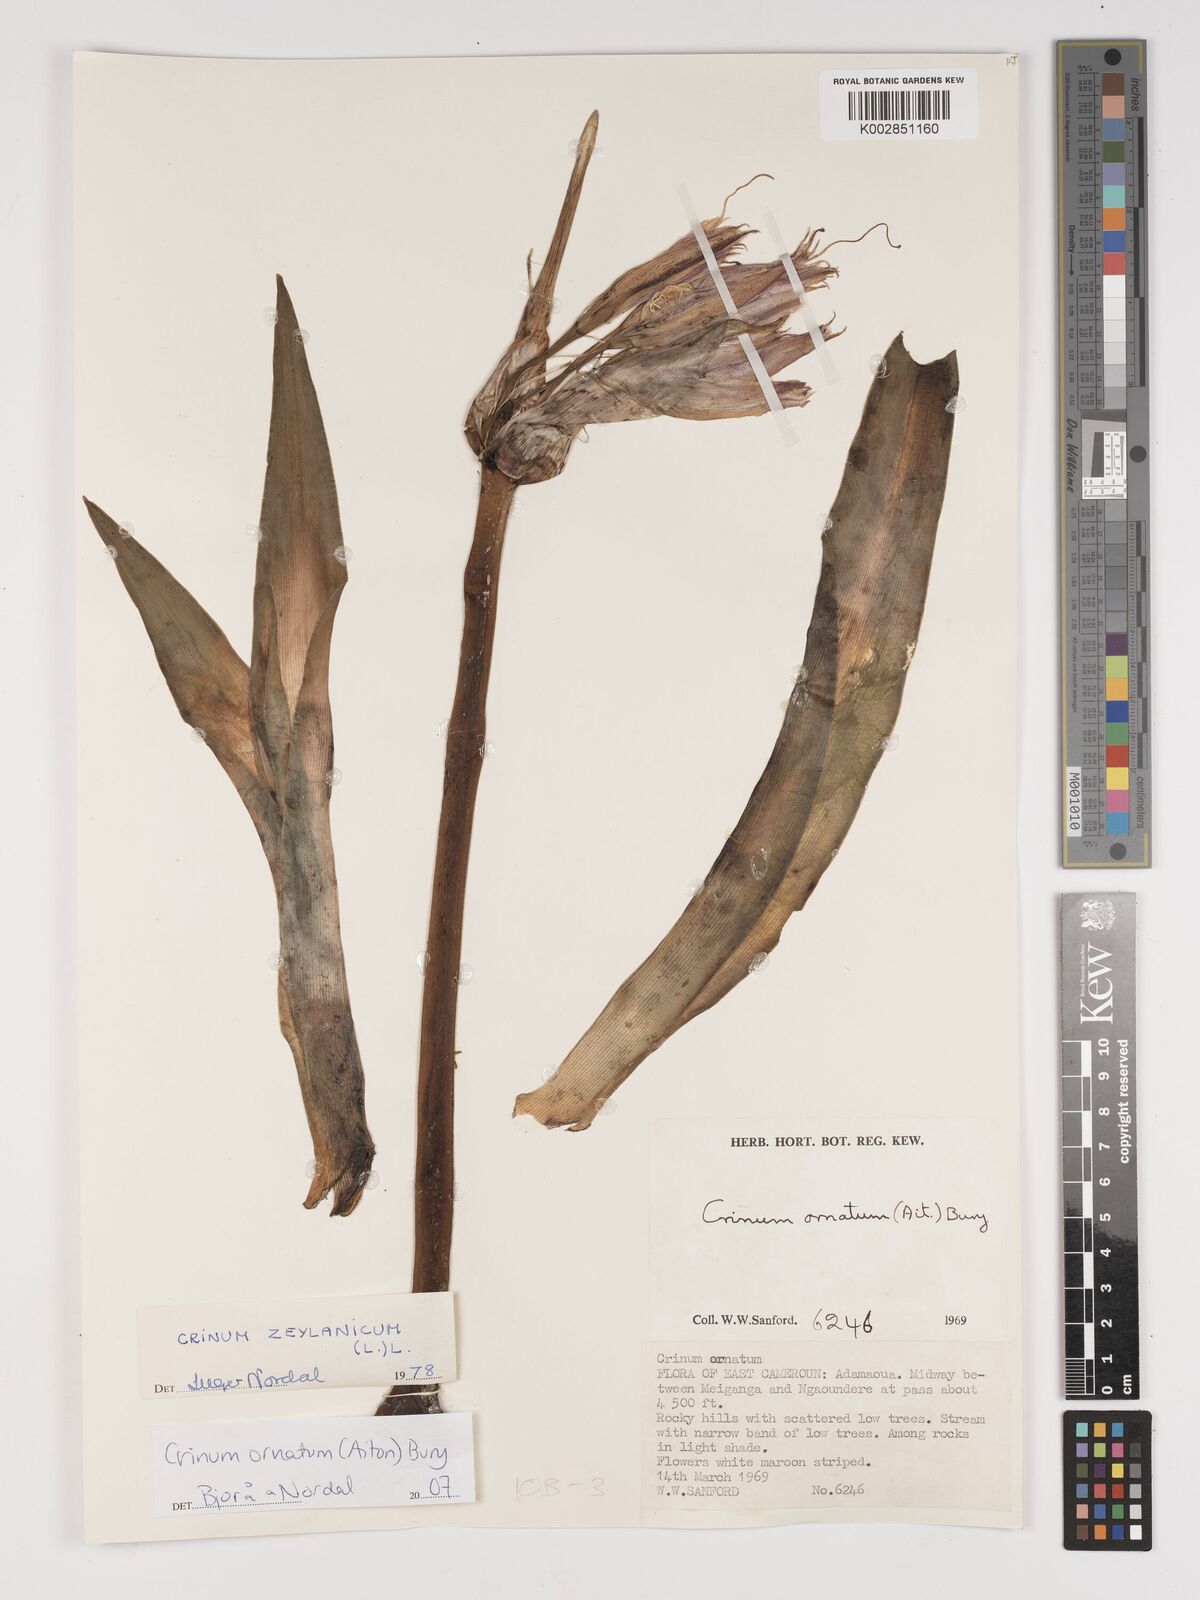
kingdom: Plantae
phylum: Tracheophyta
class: Liliopsida
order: Asparagales
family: Amaryllidaceae
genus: Crinum
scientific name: Crinum ornatum
